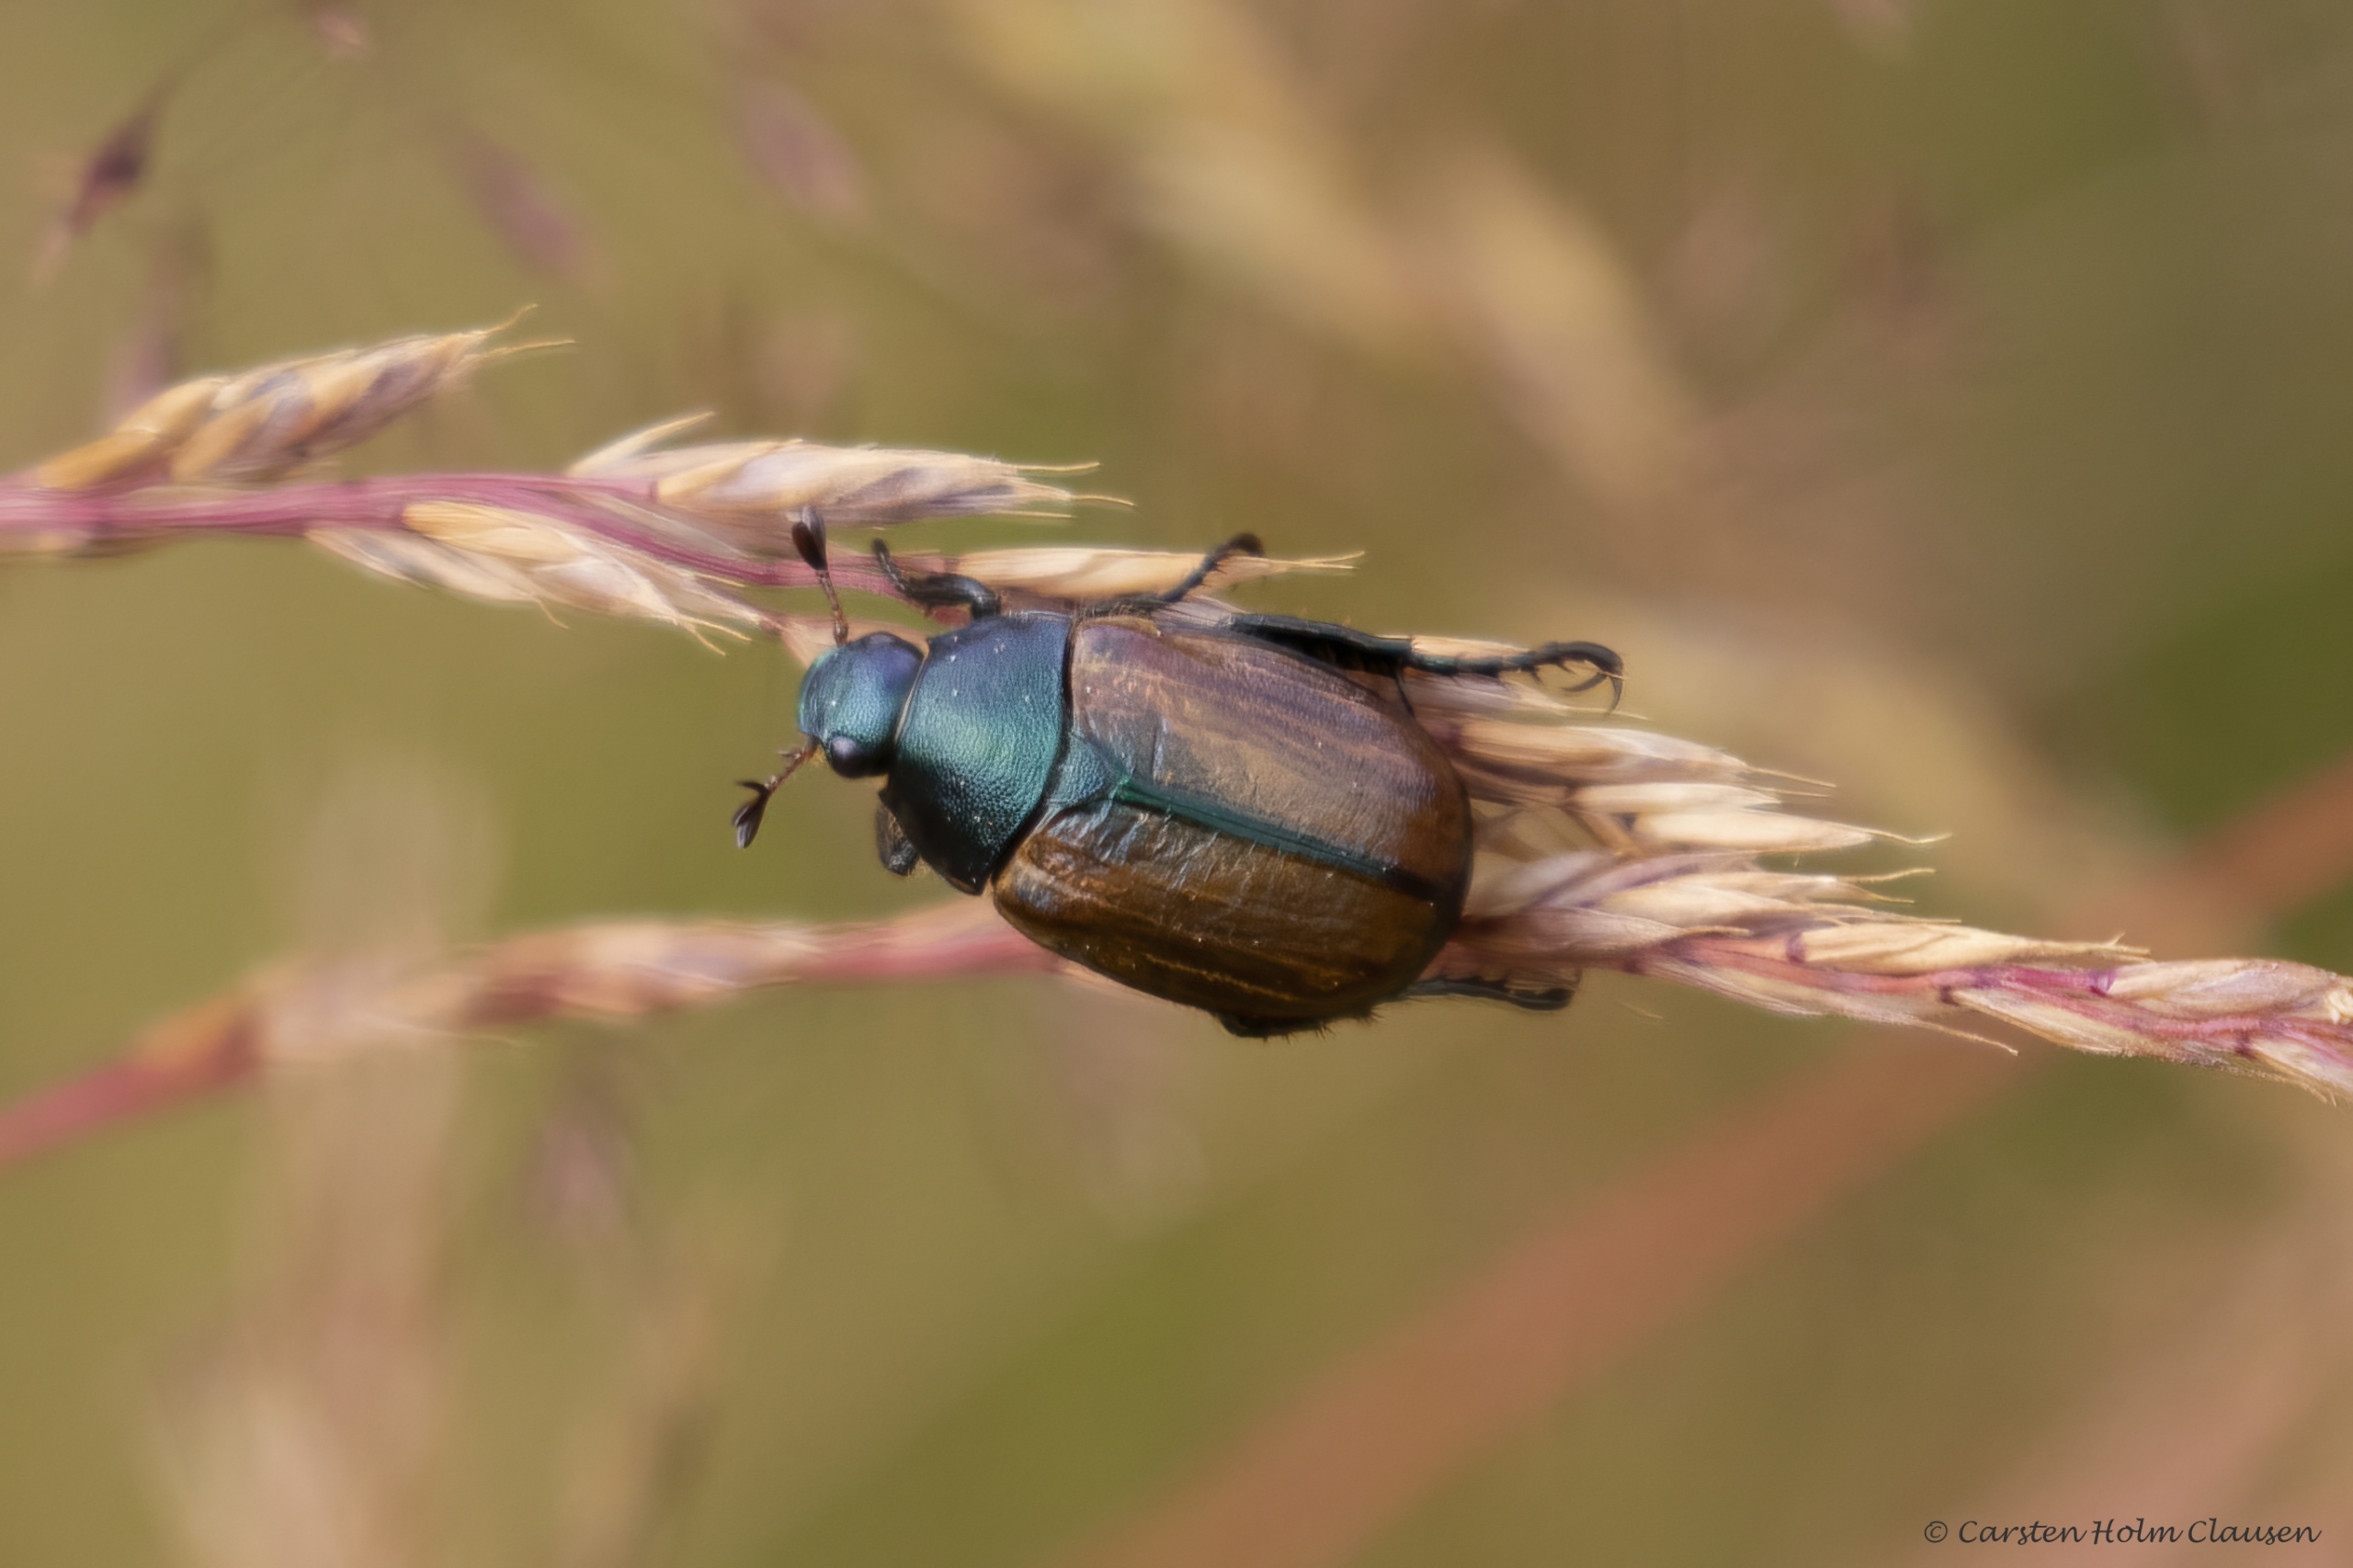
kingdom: Animalia
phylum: Arthropoda
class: Insecta
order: Coleoptera
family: Scarabaeidae
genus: Anomala
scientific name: Anomala dubia
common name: Klitoldenborre
